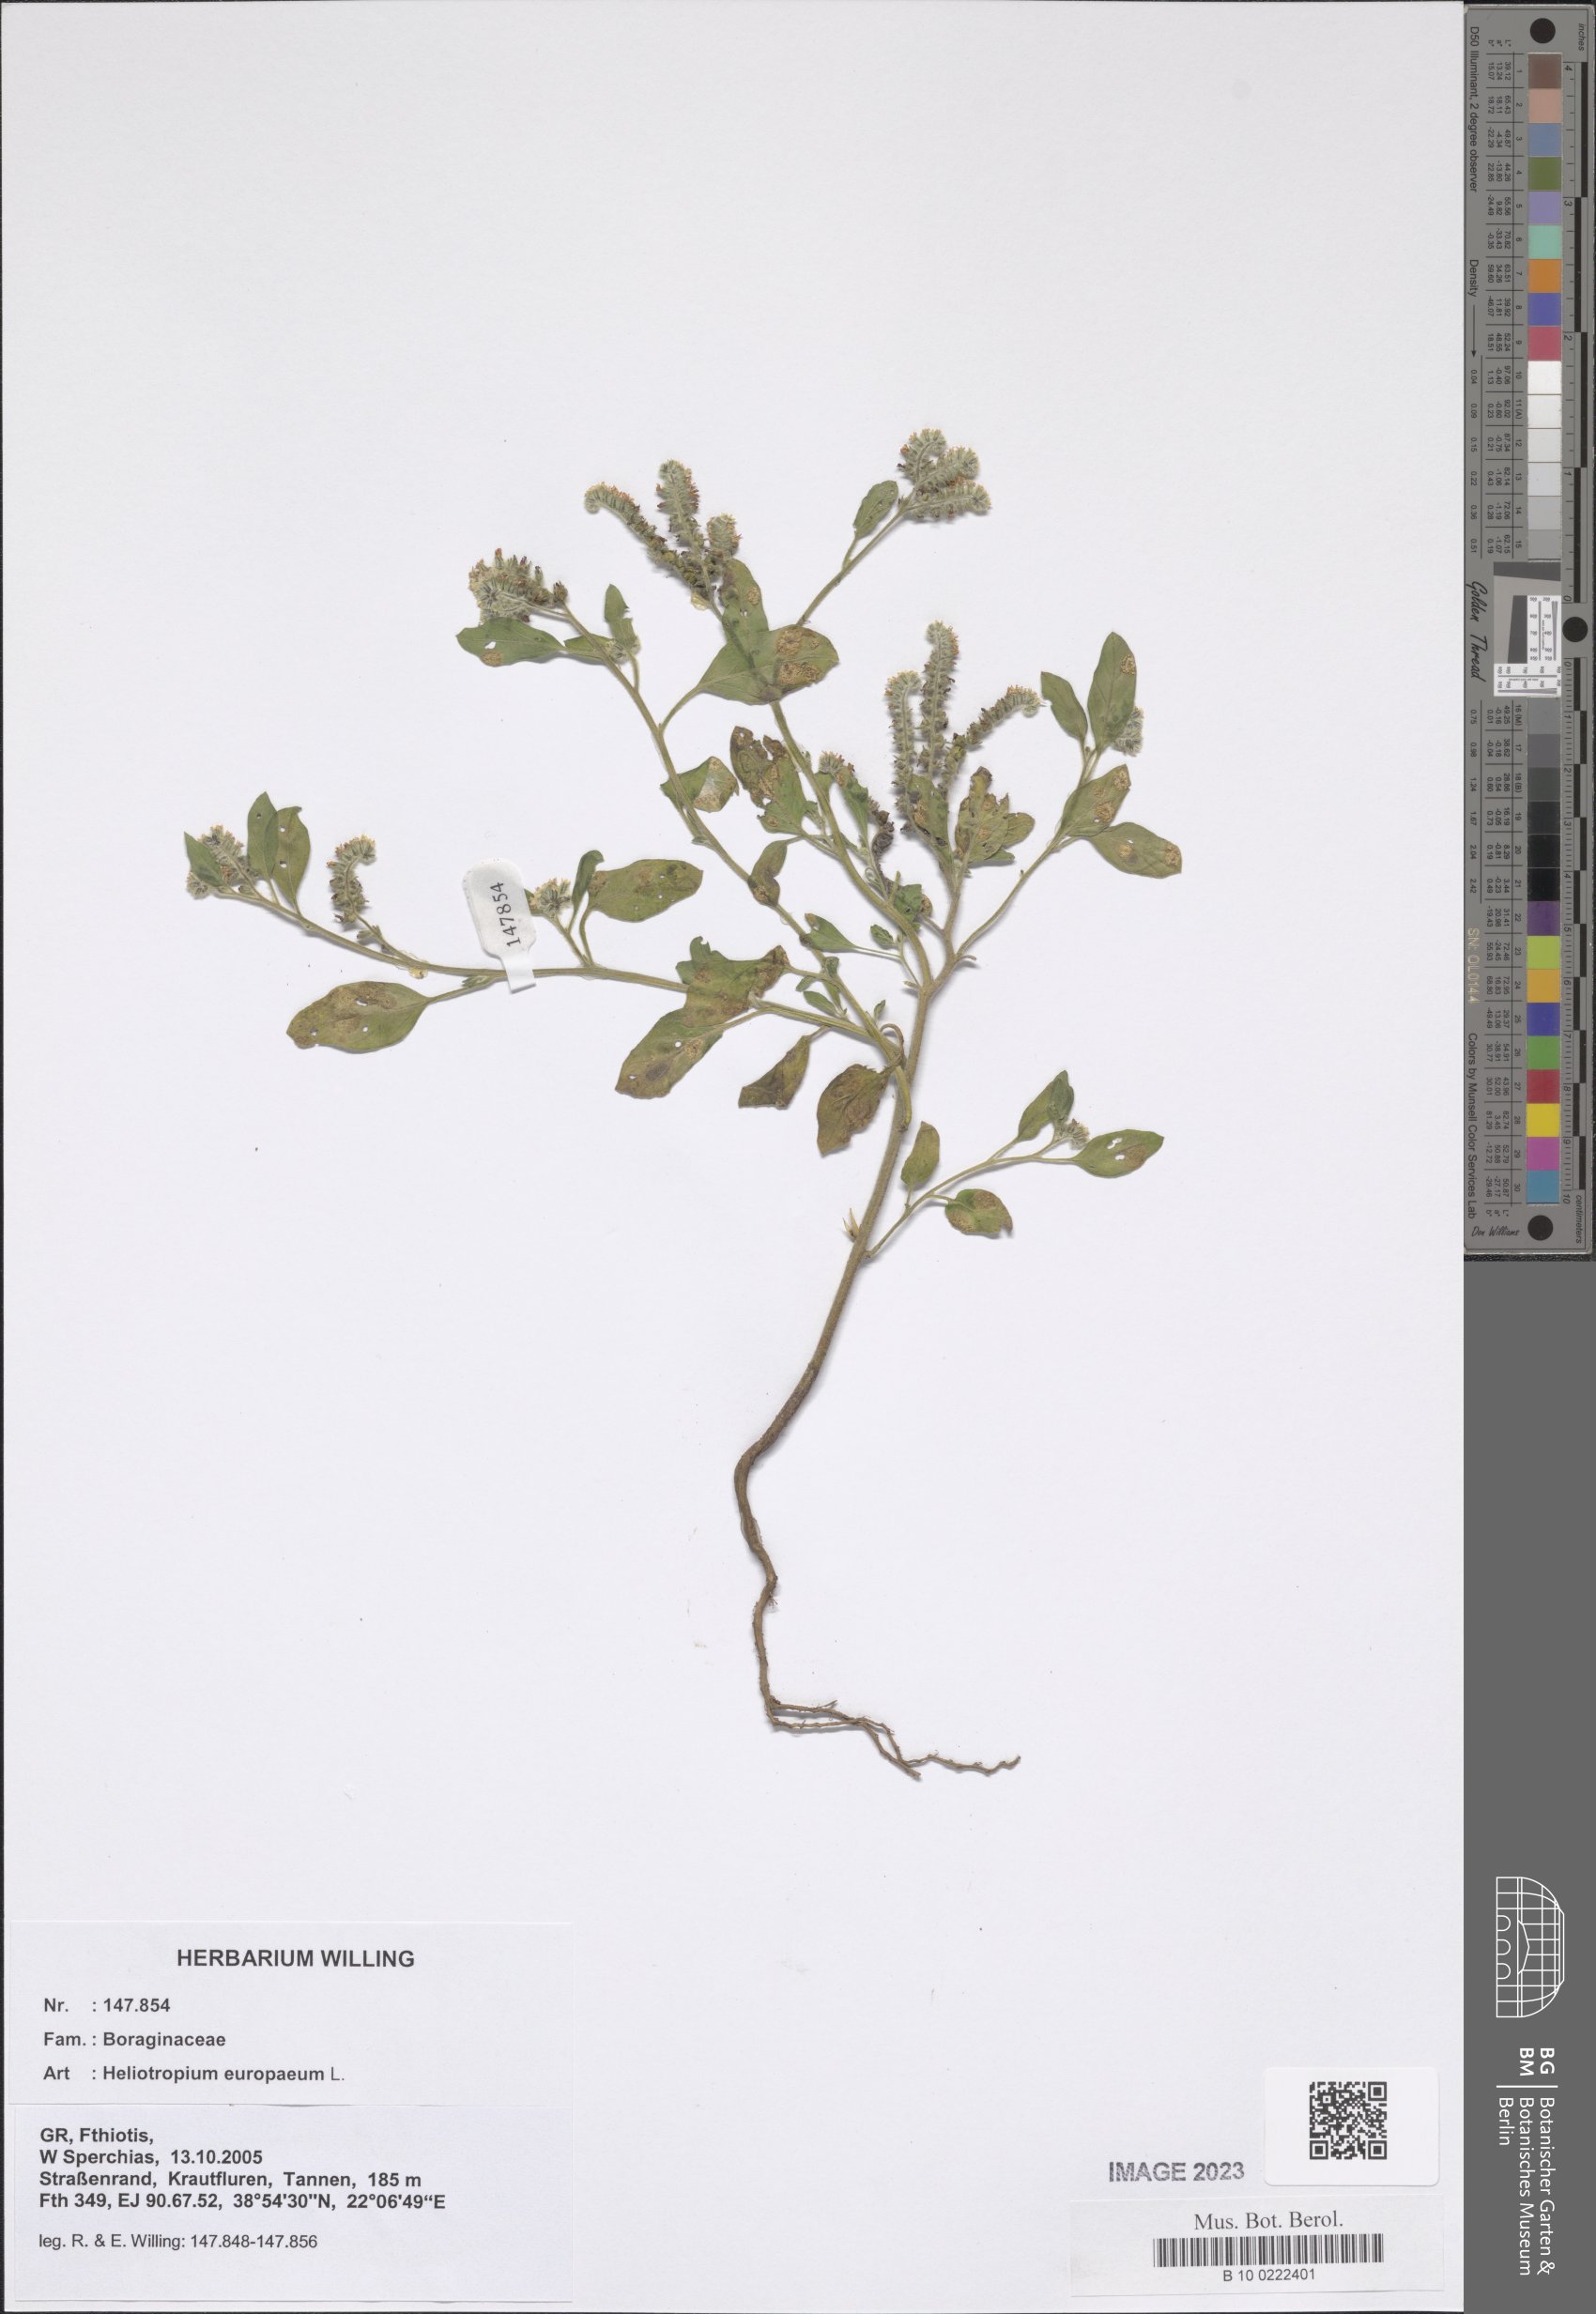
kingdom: Plantae
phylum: Tracheophyta
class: Magnoliopsida
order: Boraginales
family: Heliotropiaceae
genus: Heliotropium
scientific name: Heliotropium europaeum
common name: European heliotrope
